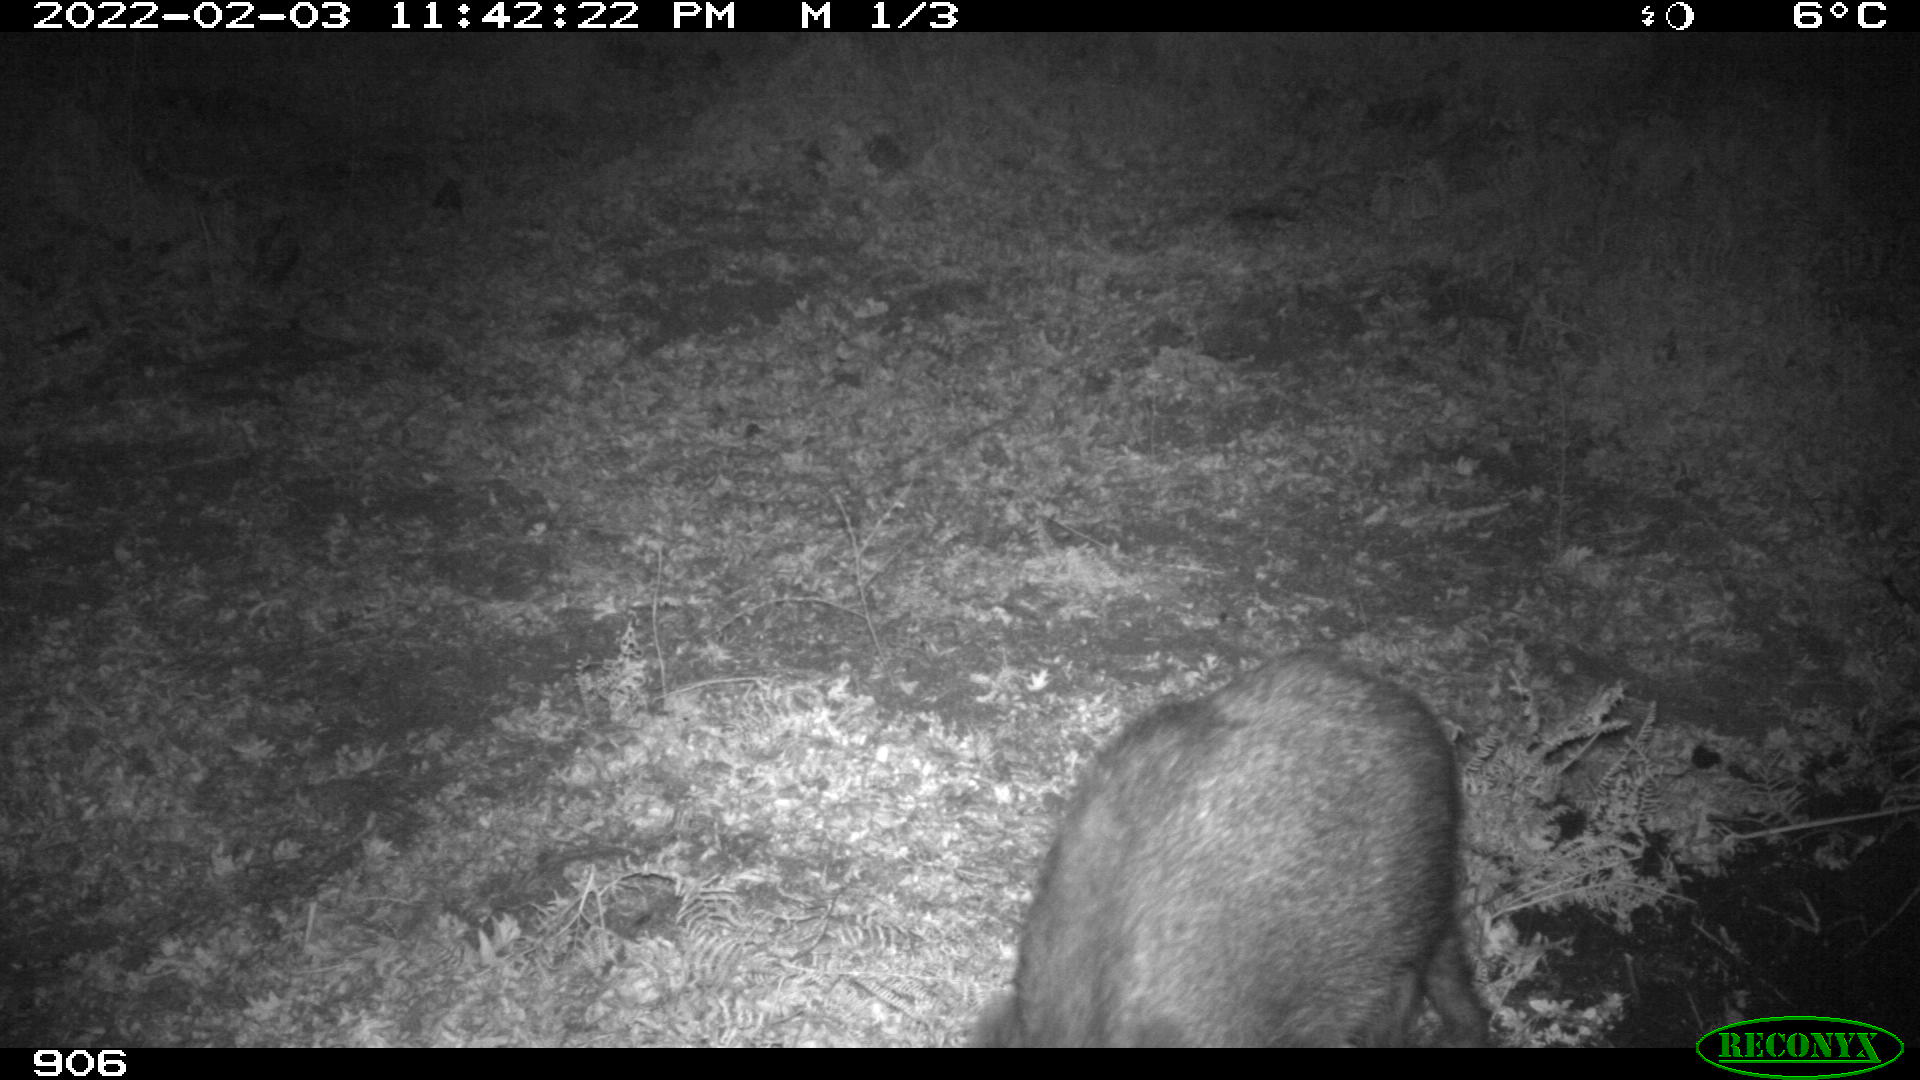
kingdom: Animalia
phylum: Chordata
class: Mammalia
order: Artiodactyla
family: Suidae
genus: Sus
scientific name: Sus scrofa
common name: Wild boar
